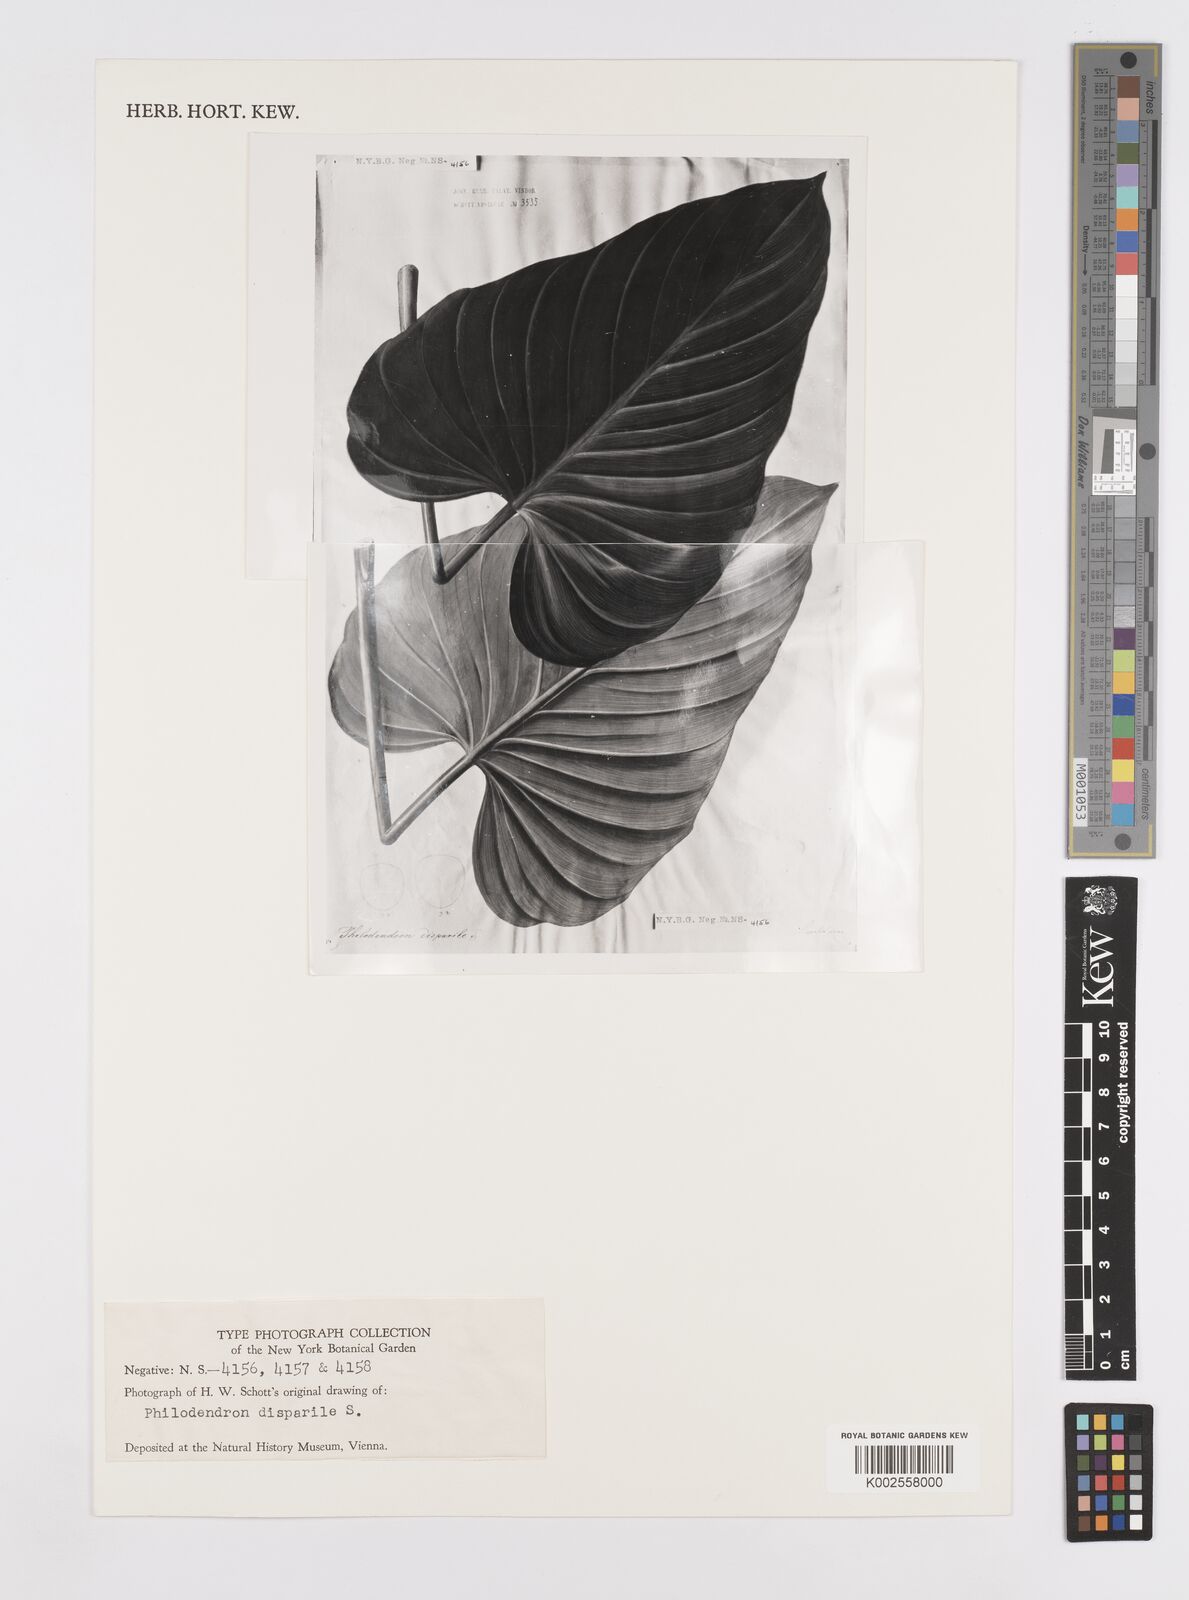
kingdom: Plantae
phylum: Tracheophyta
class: Liliopsida
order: Alismatales
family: Araceae
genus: Philodendron
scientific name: Philodendron hastatum
